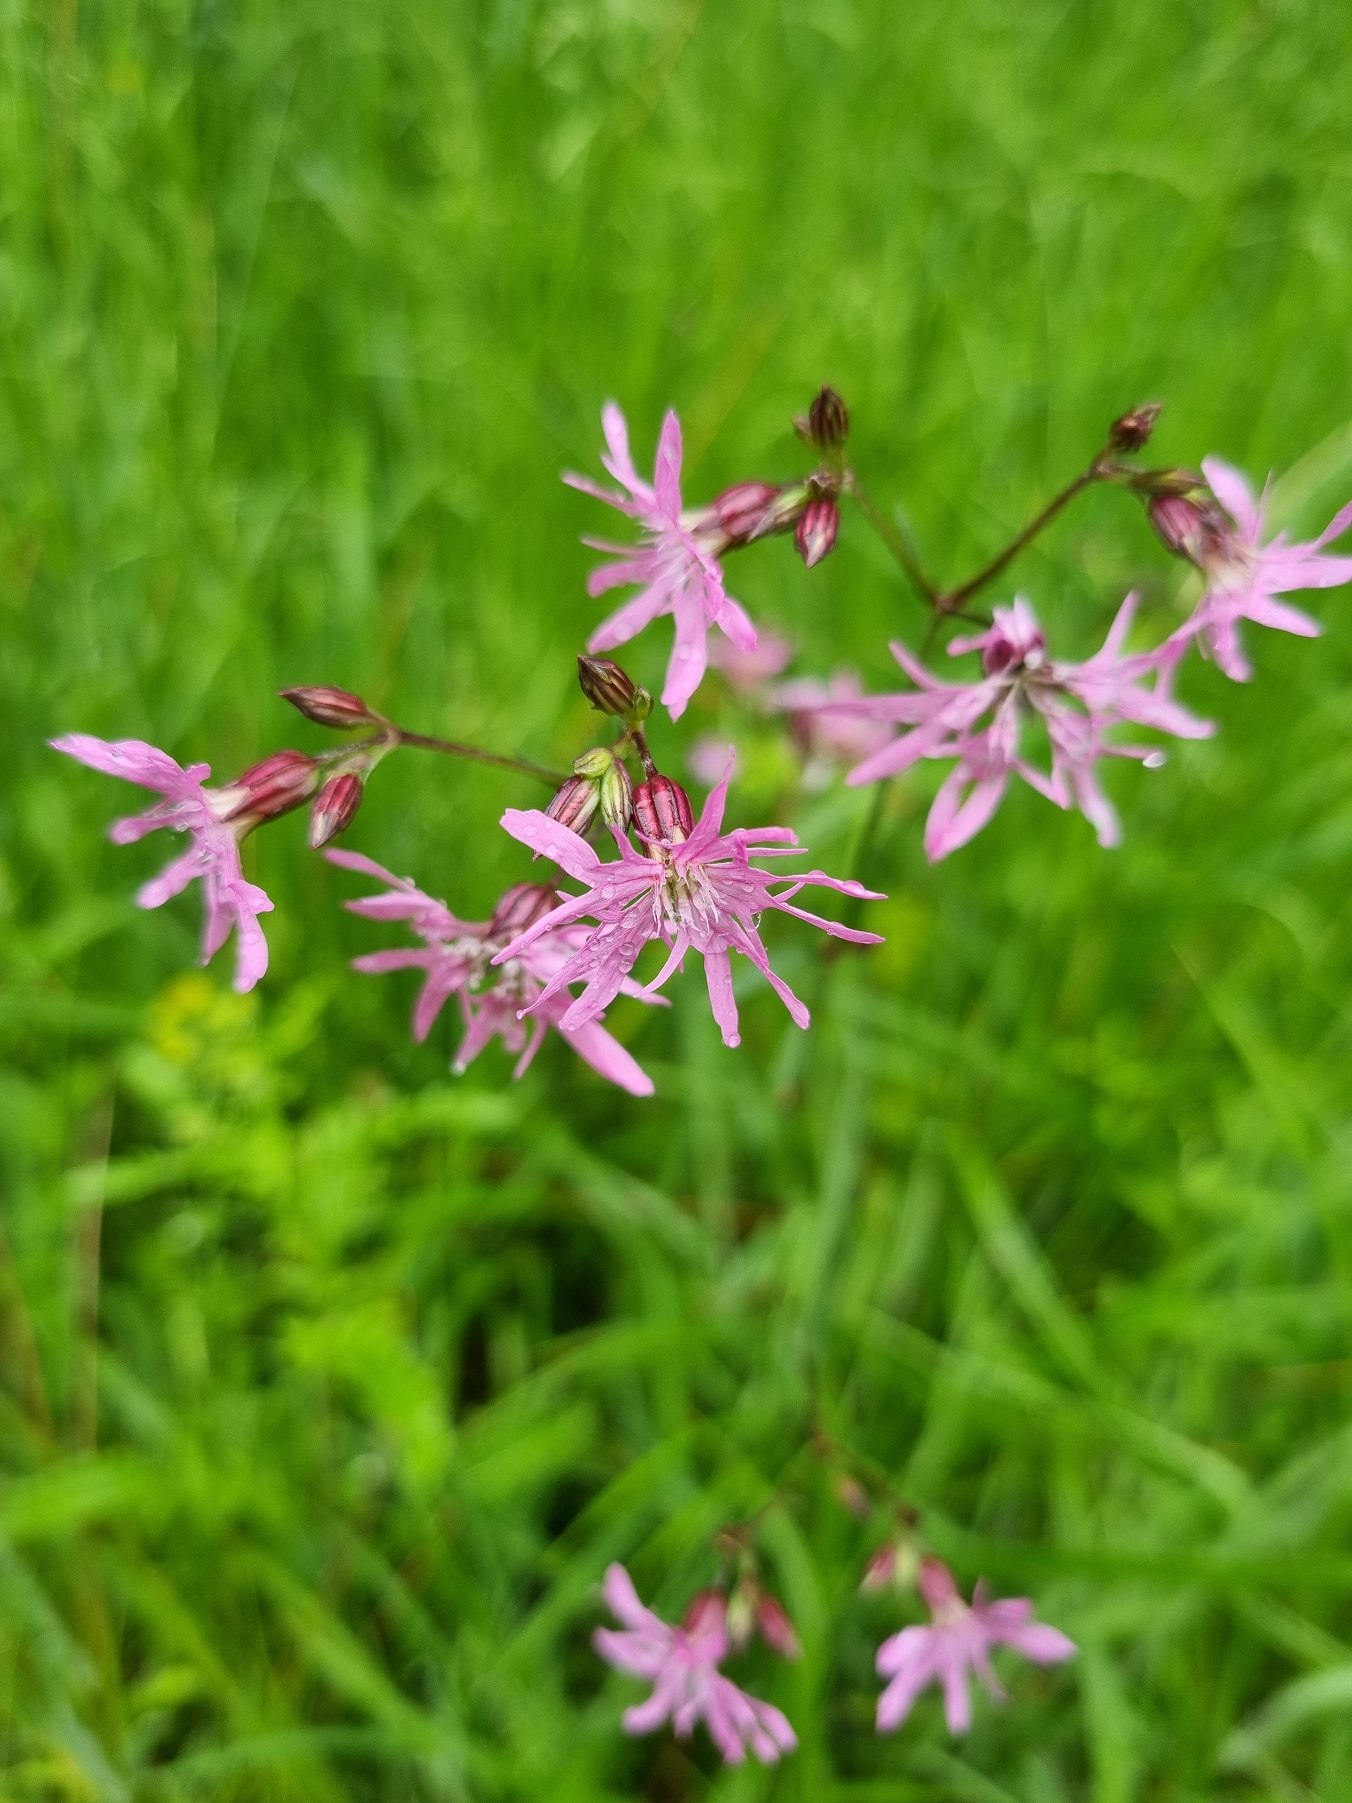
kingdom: Plantae
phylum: Tracheophyta
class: Magnoliopsida
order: Caryophyllales
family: Caryophyllaceae
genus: Silene
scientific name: Silene flos-cuculi
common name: Trævlekrone
